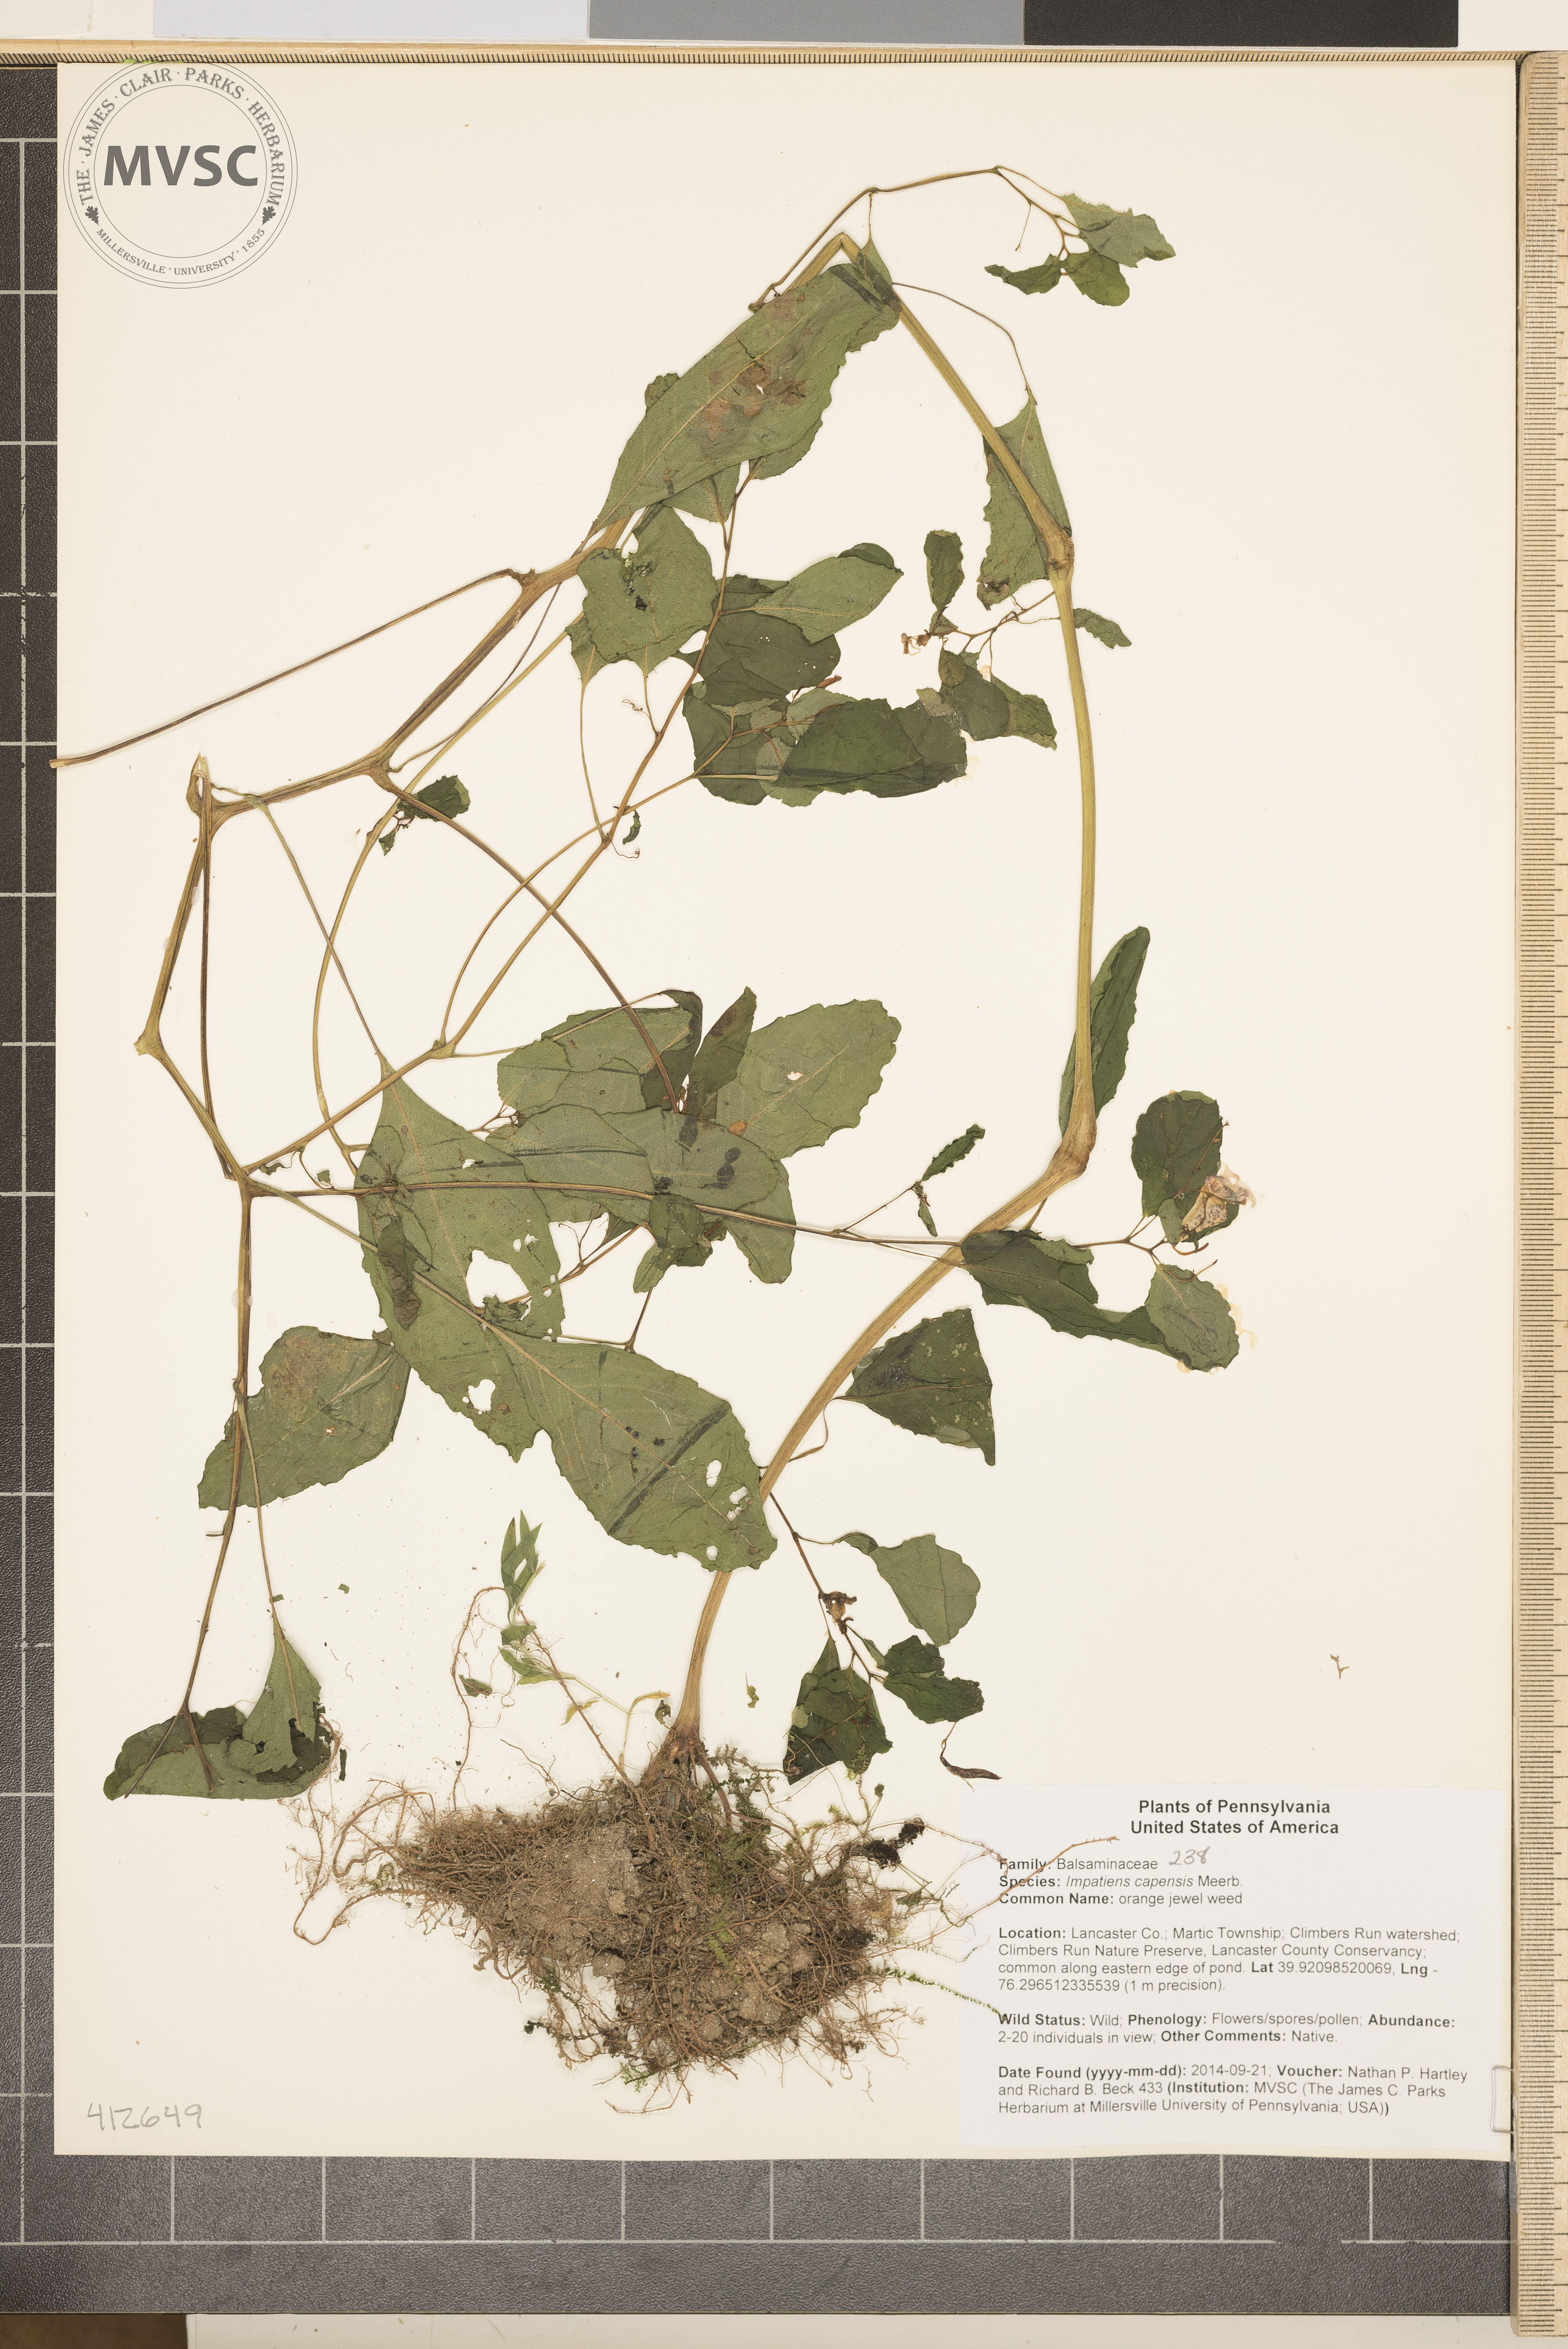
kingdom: Plantae
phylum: Tracheophyta
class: Magnoliopsida
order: Ericales
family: Balsaminaceae
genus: Impatiens
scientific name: Impatiens capensis
